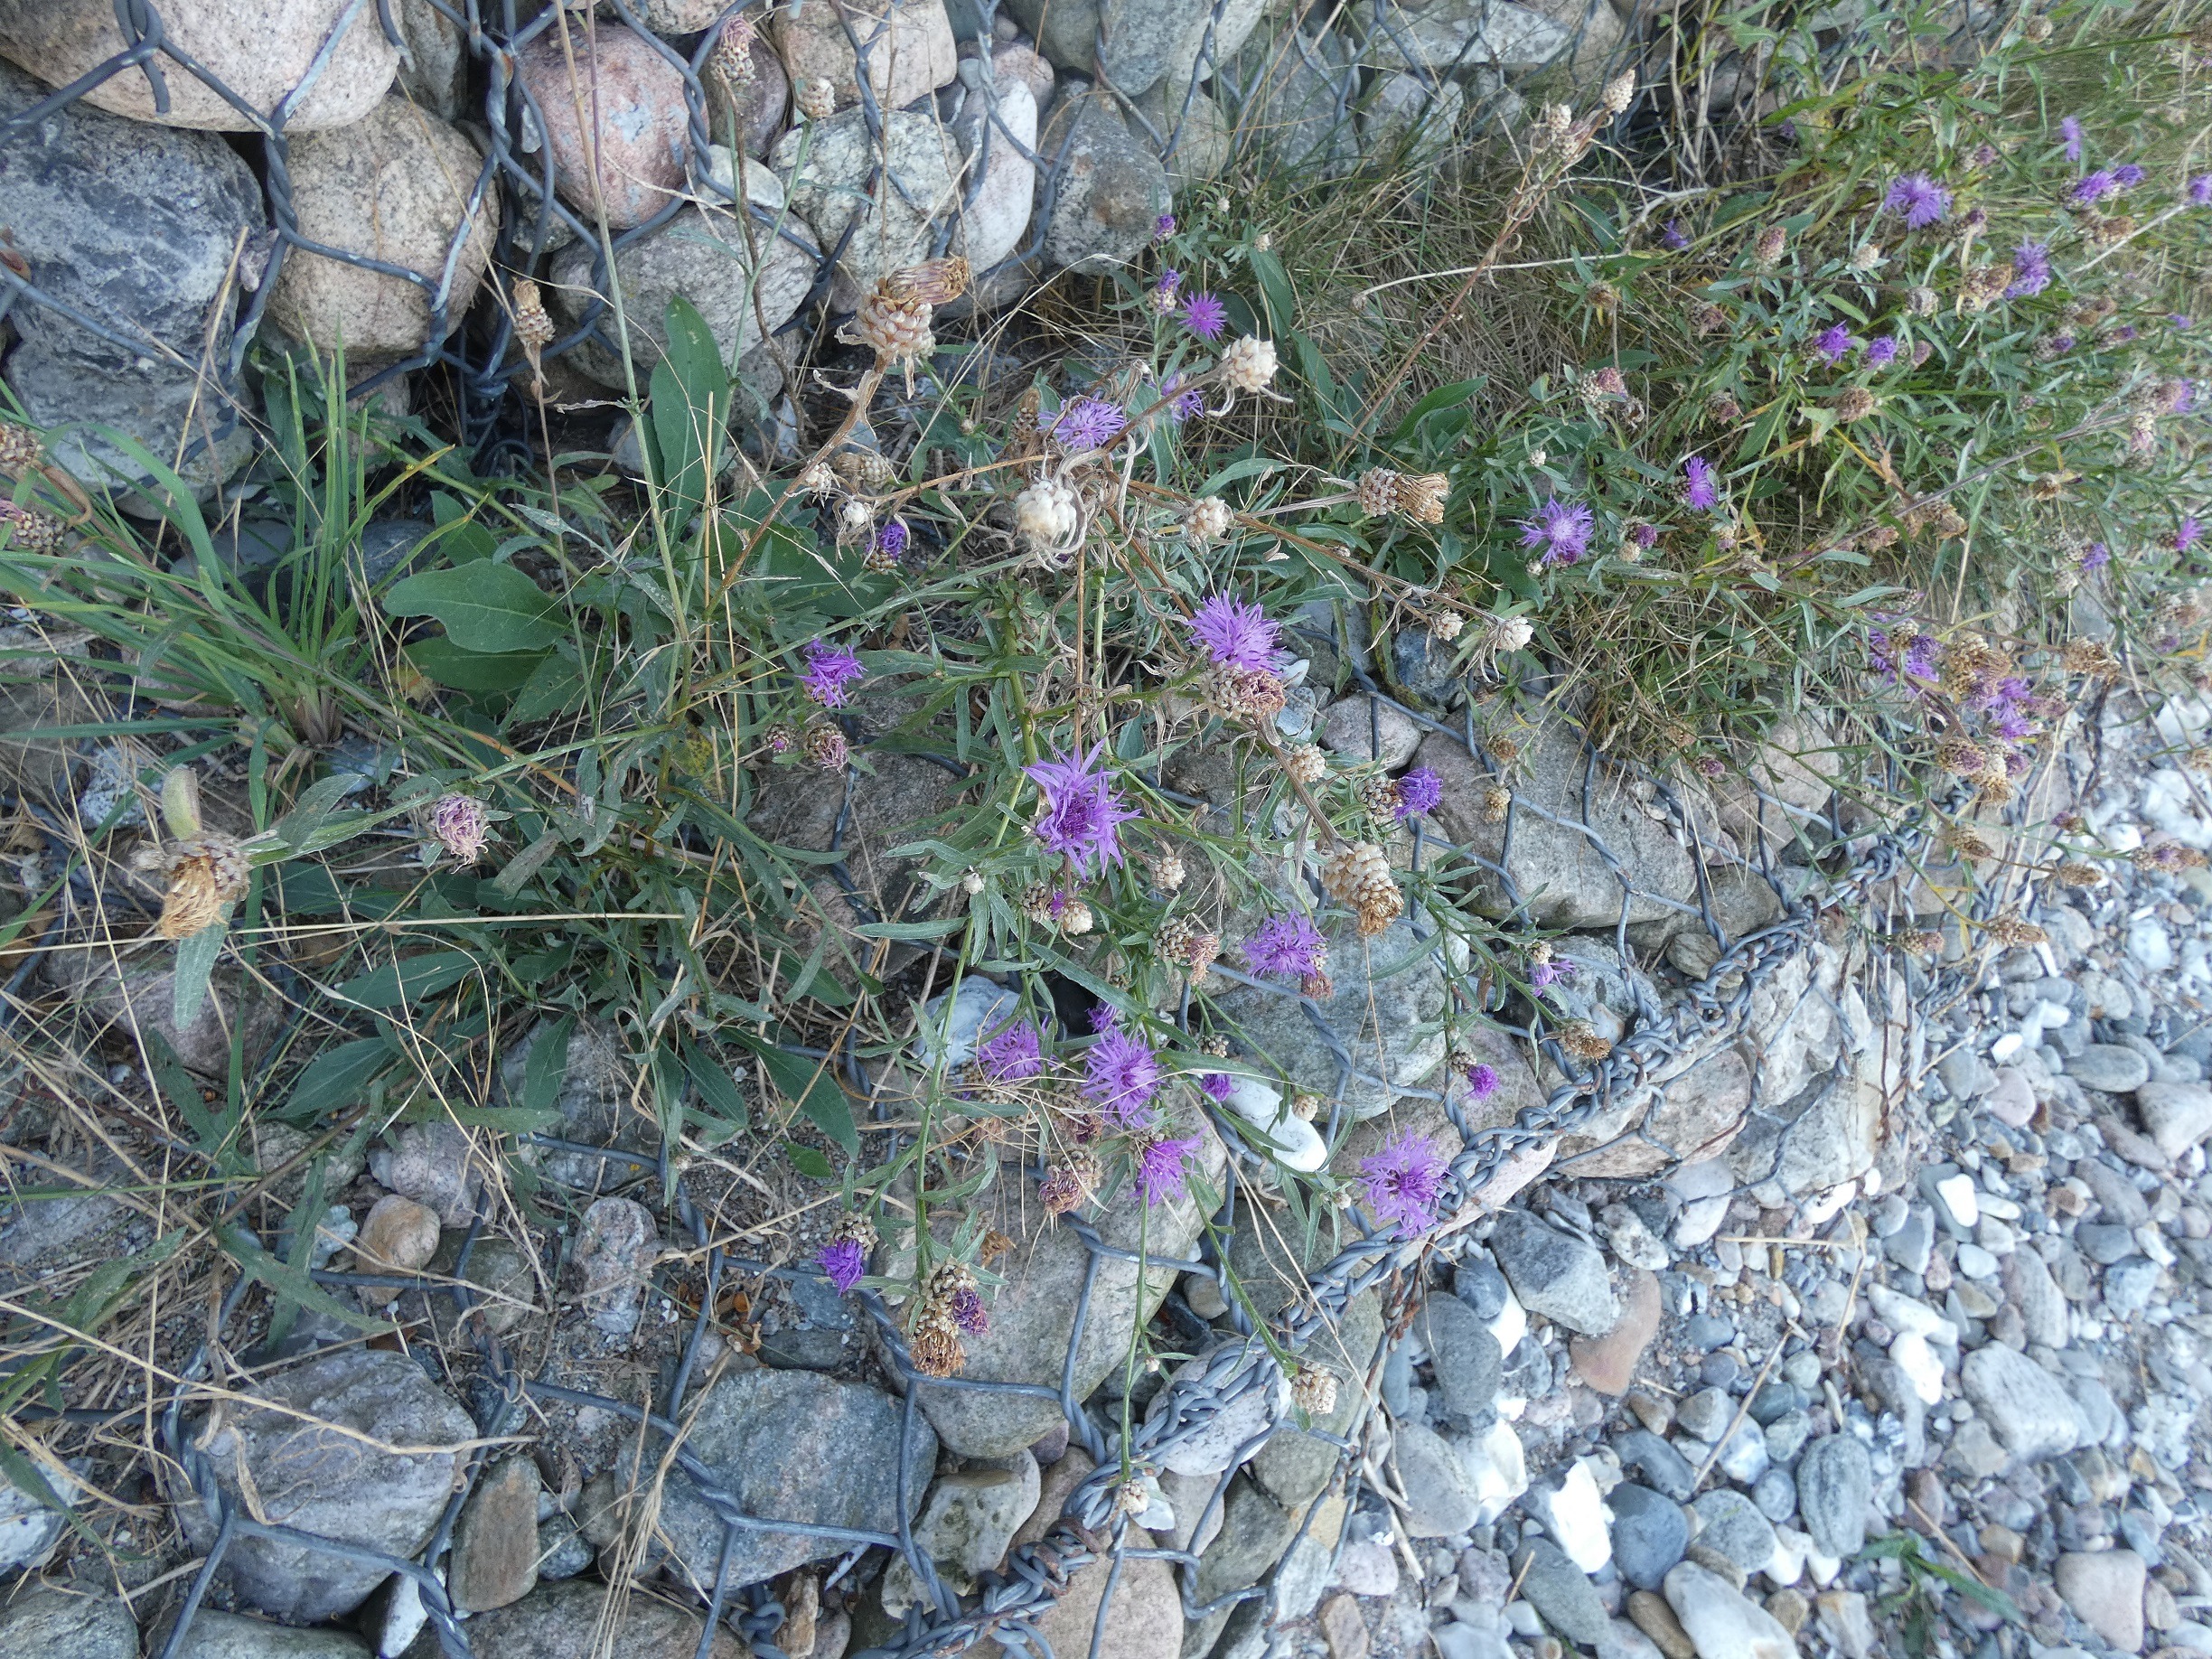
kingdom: Plantae
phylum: Tracheophyta
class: Magnoliopsida
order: Asterales
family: Asteraceae
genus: Centaurea
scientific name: Centaurea jacea
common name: Almindelig knopurt
